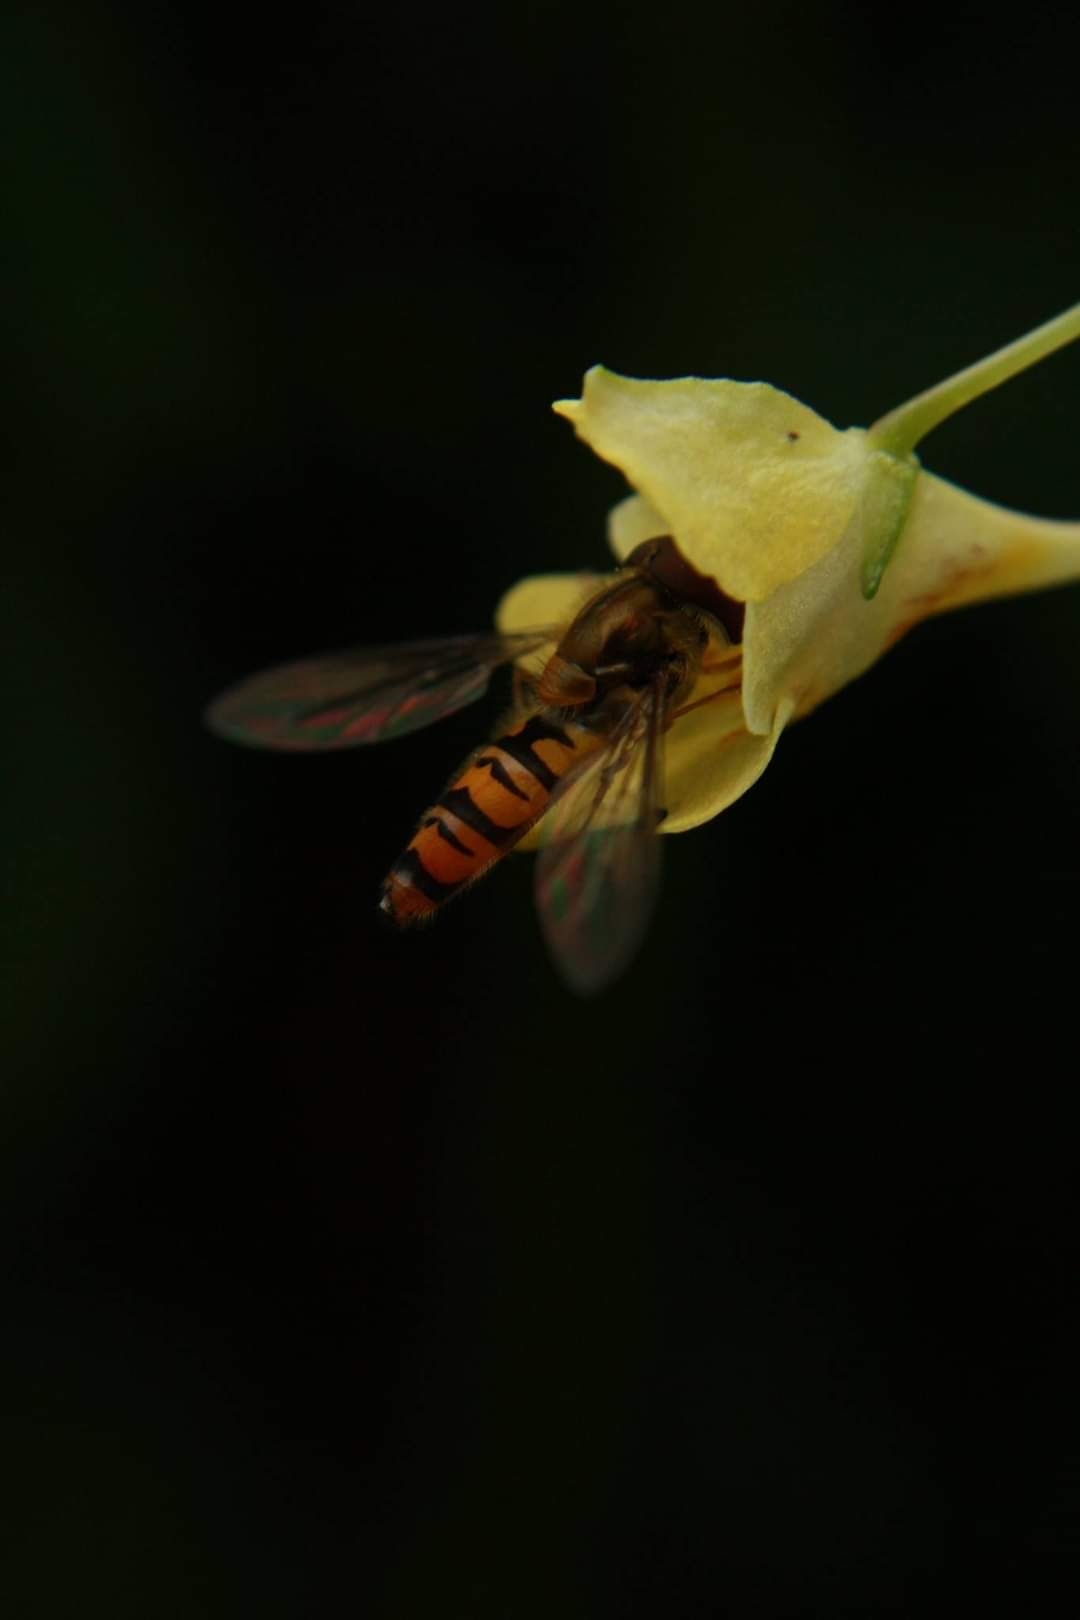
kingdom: Animalia
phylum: Arthropoda
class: Insecta
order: Diptera
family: Syrphidae
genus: Episyrphus
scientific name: Episyrphus balteatus
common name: Dobbeltbåndet svirreflue
